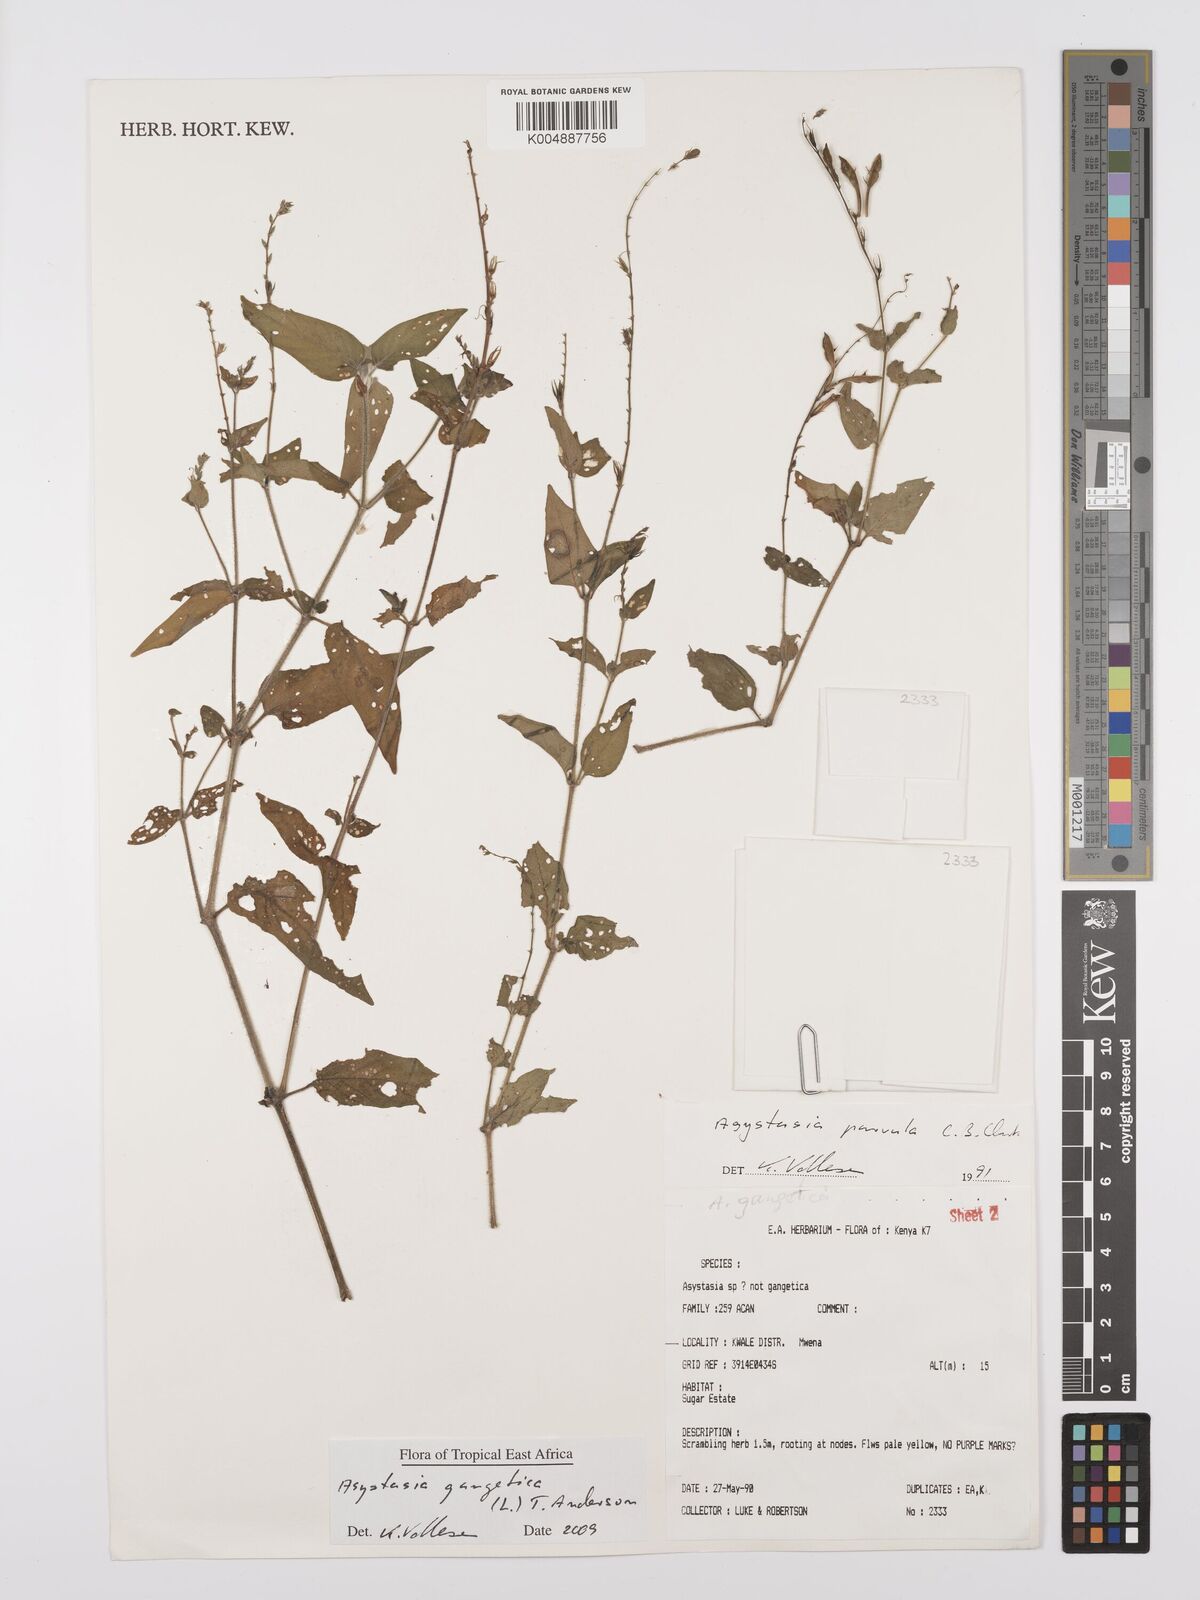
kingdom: Plantae
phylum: Tracheophyta
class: Magnoliopsida
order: Lamiales
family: Acanthaceae
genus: Asystasia
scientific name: Asystasia gangetica
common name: Chinese violet
